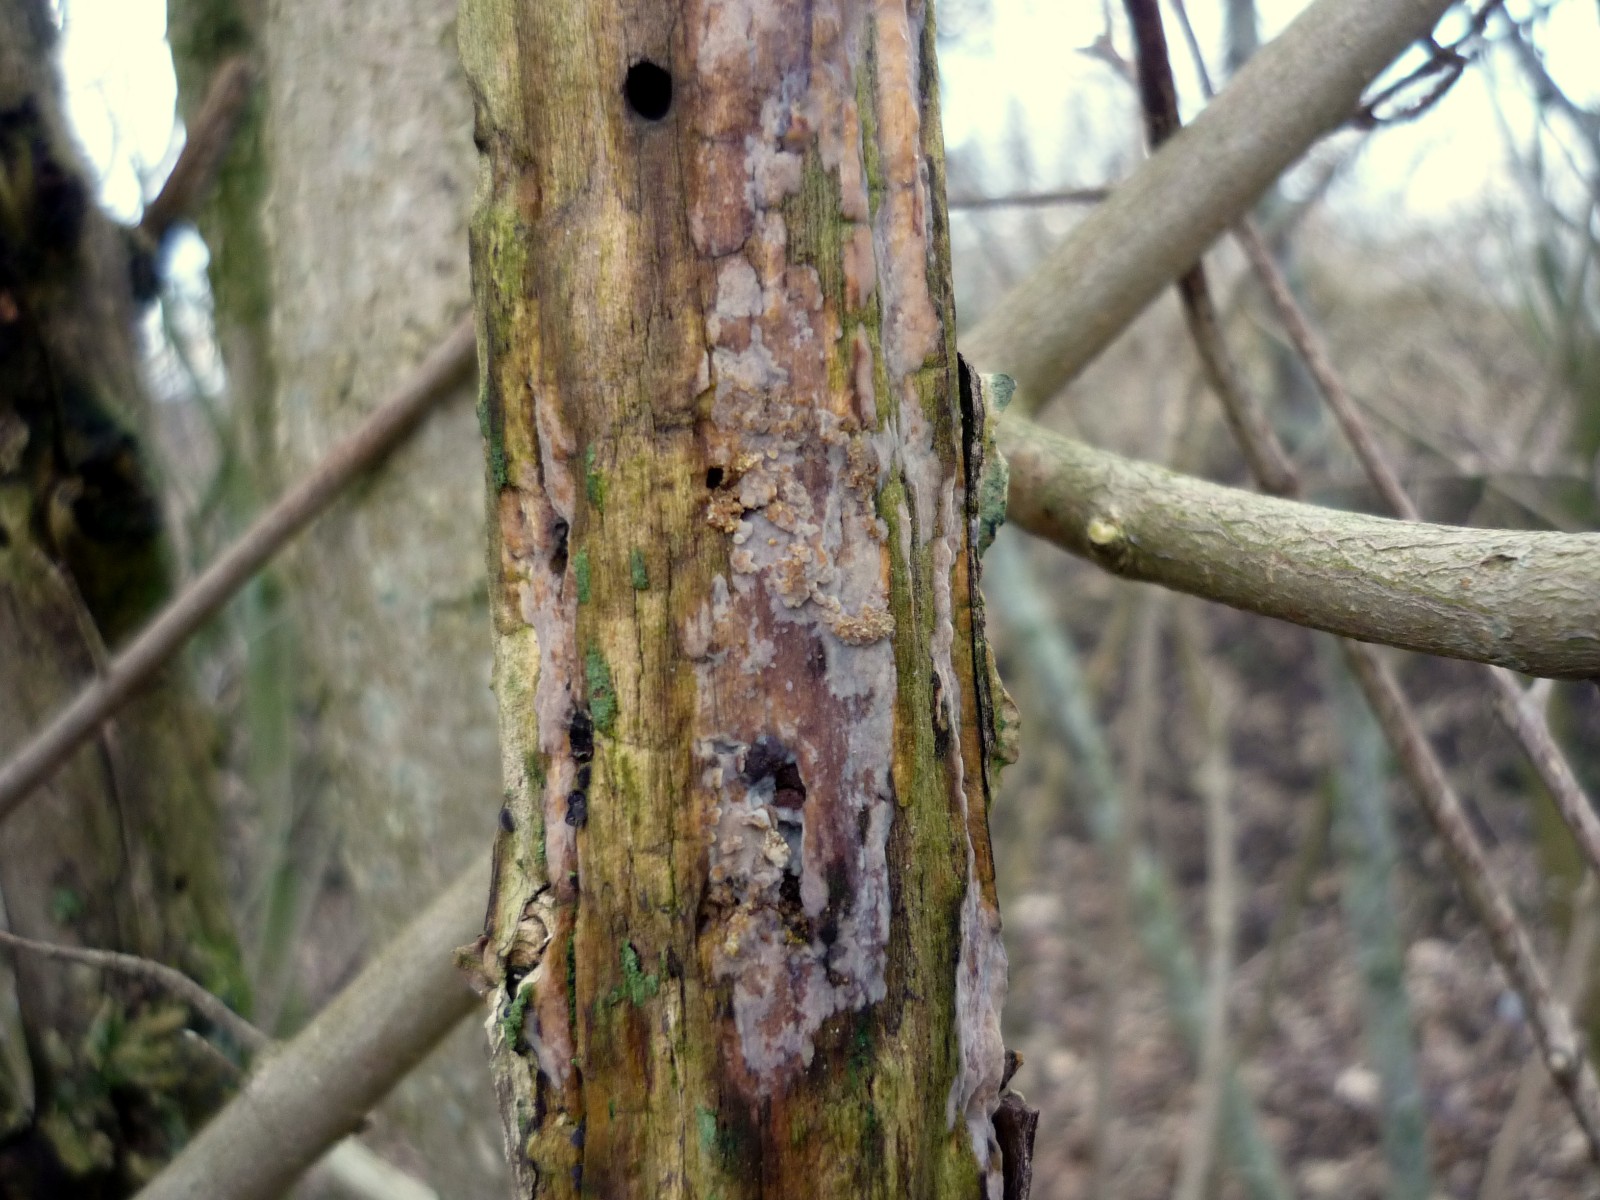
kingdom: Fungi
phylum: Basidiomycota
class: Agaricomycetes
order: Agaricales
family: Radulomycetaceae
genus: Radulomyces
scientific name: Radulomyces confluens
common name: glat naftalinskind
